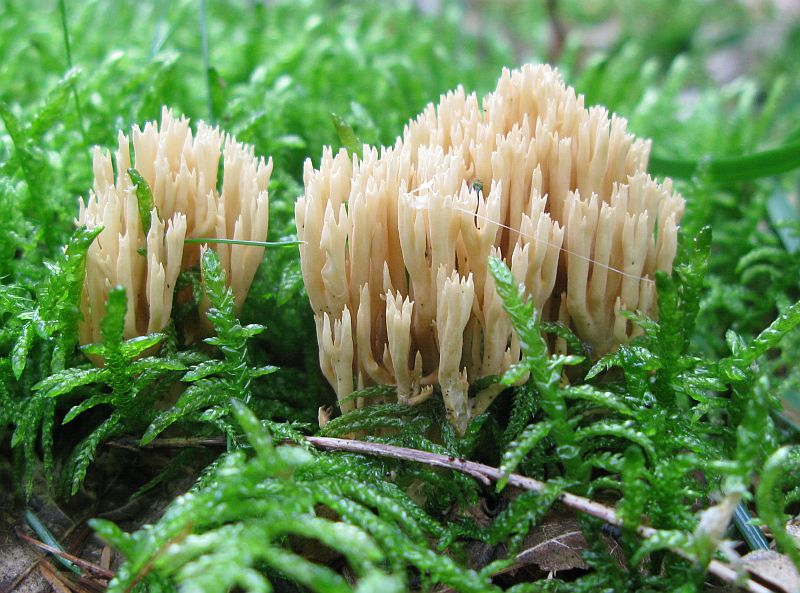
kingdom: Fungi
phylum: Basidiomycota
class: Agaricomycetes
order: Gomphales
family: Gomphaceae
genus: Phaeoclavulina
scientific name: Phaeoclavulina eumorpha
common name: gran-koralsvamp
